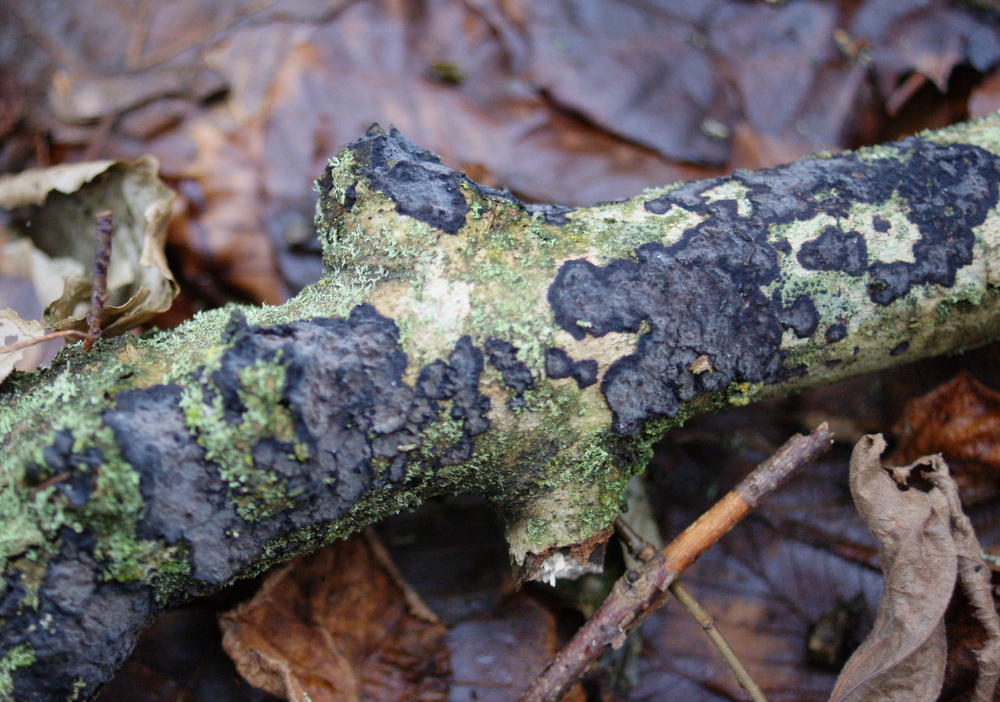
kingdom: Fungi
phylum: Basidiomycota
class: Agaricomycetes
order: Russulales
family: Peniophoraceae
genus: Peniophora
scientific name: Peniophora limitata
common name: mørkrandet voksskind
